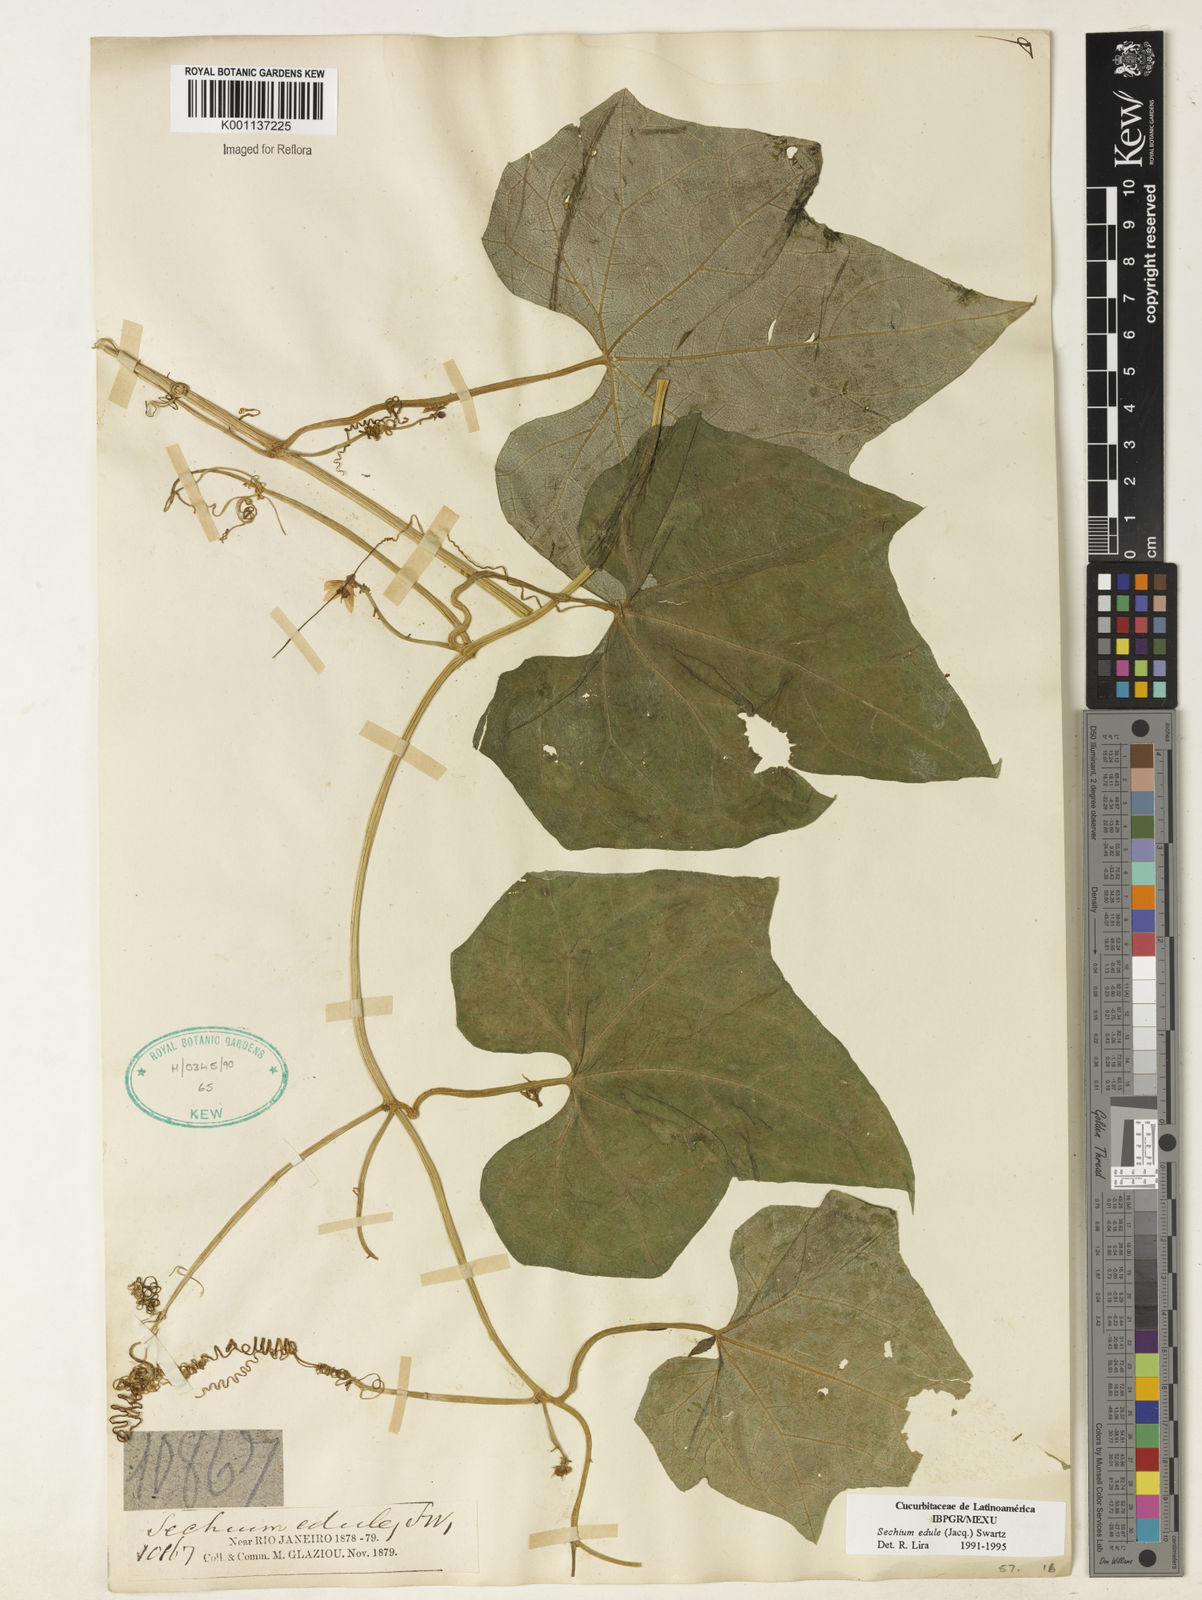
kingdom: Plantae
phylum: Tracheophyta
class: Magnoliopsida
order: Cucurbitales
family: Cucurbitaceae
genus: Sechium
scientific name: Sechium edule
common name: Chayote
